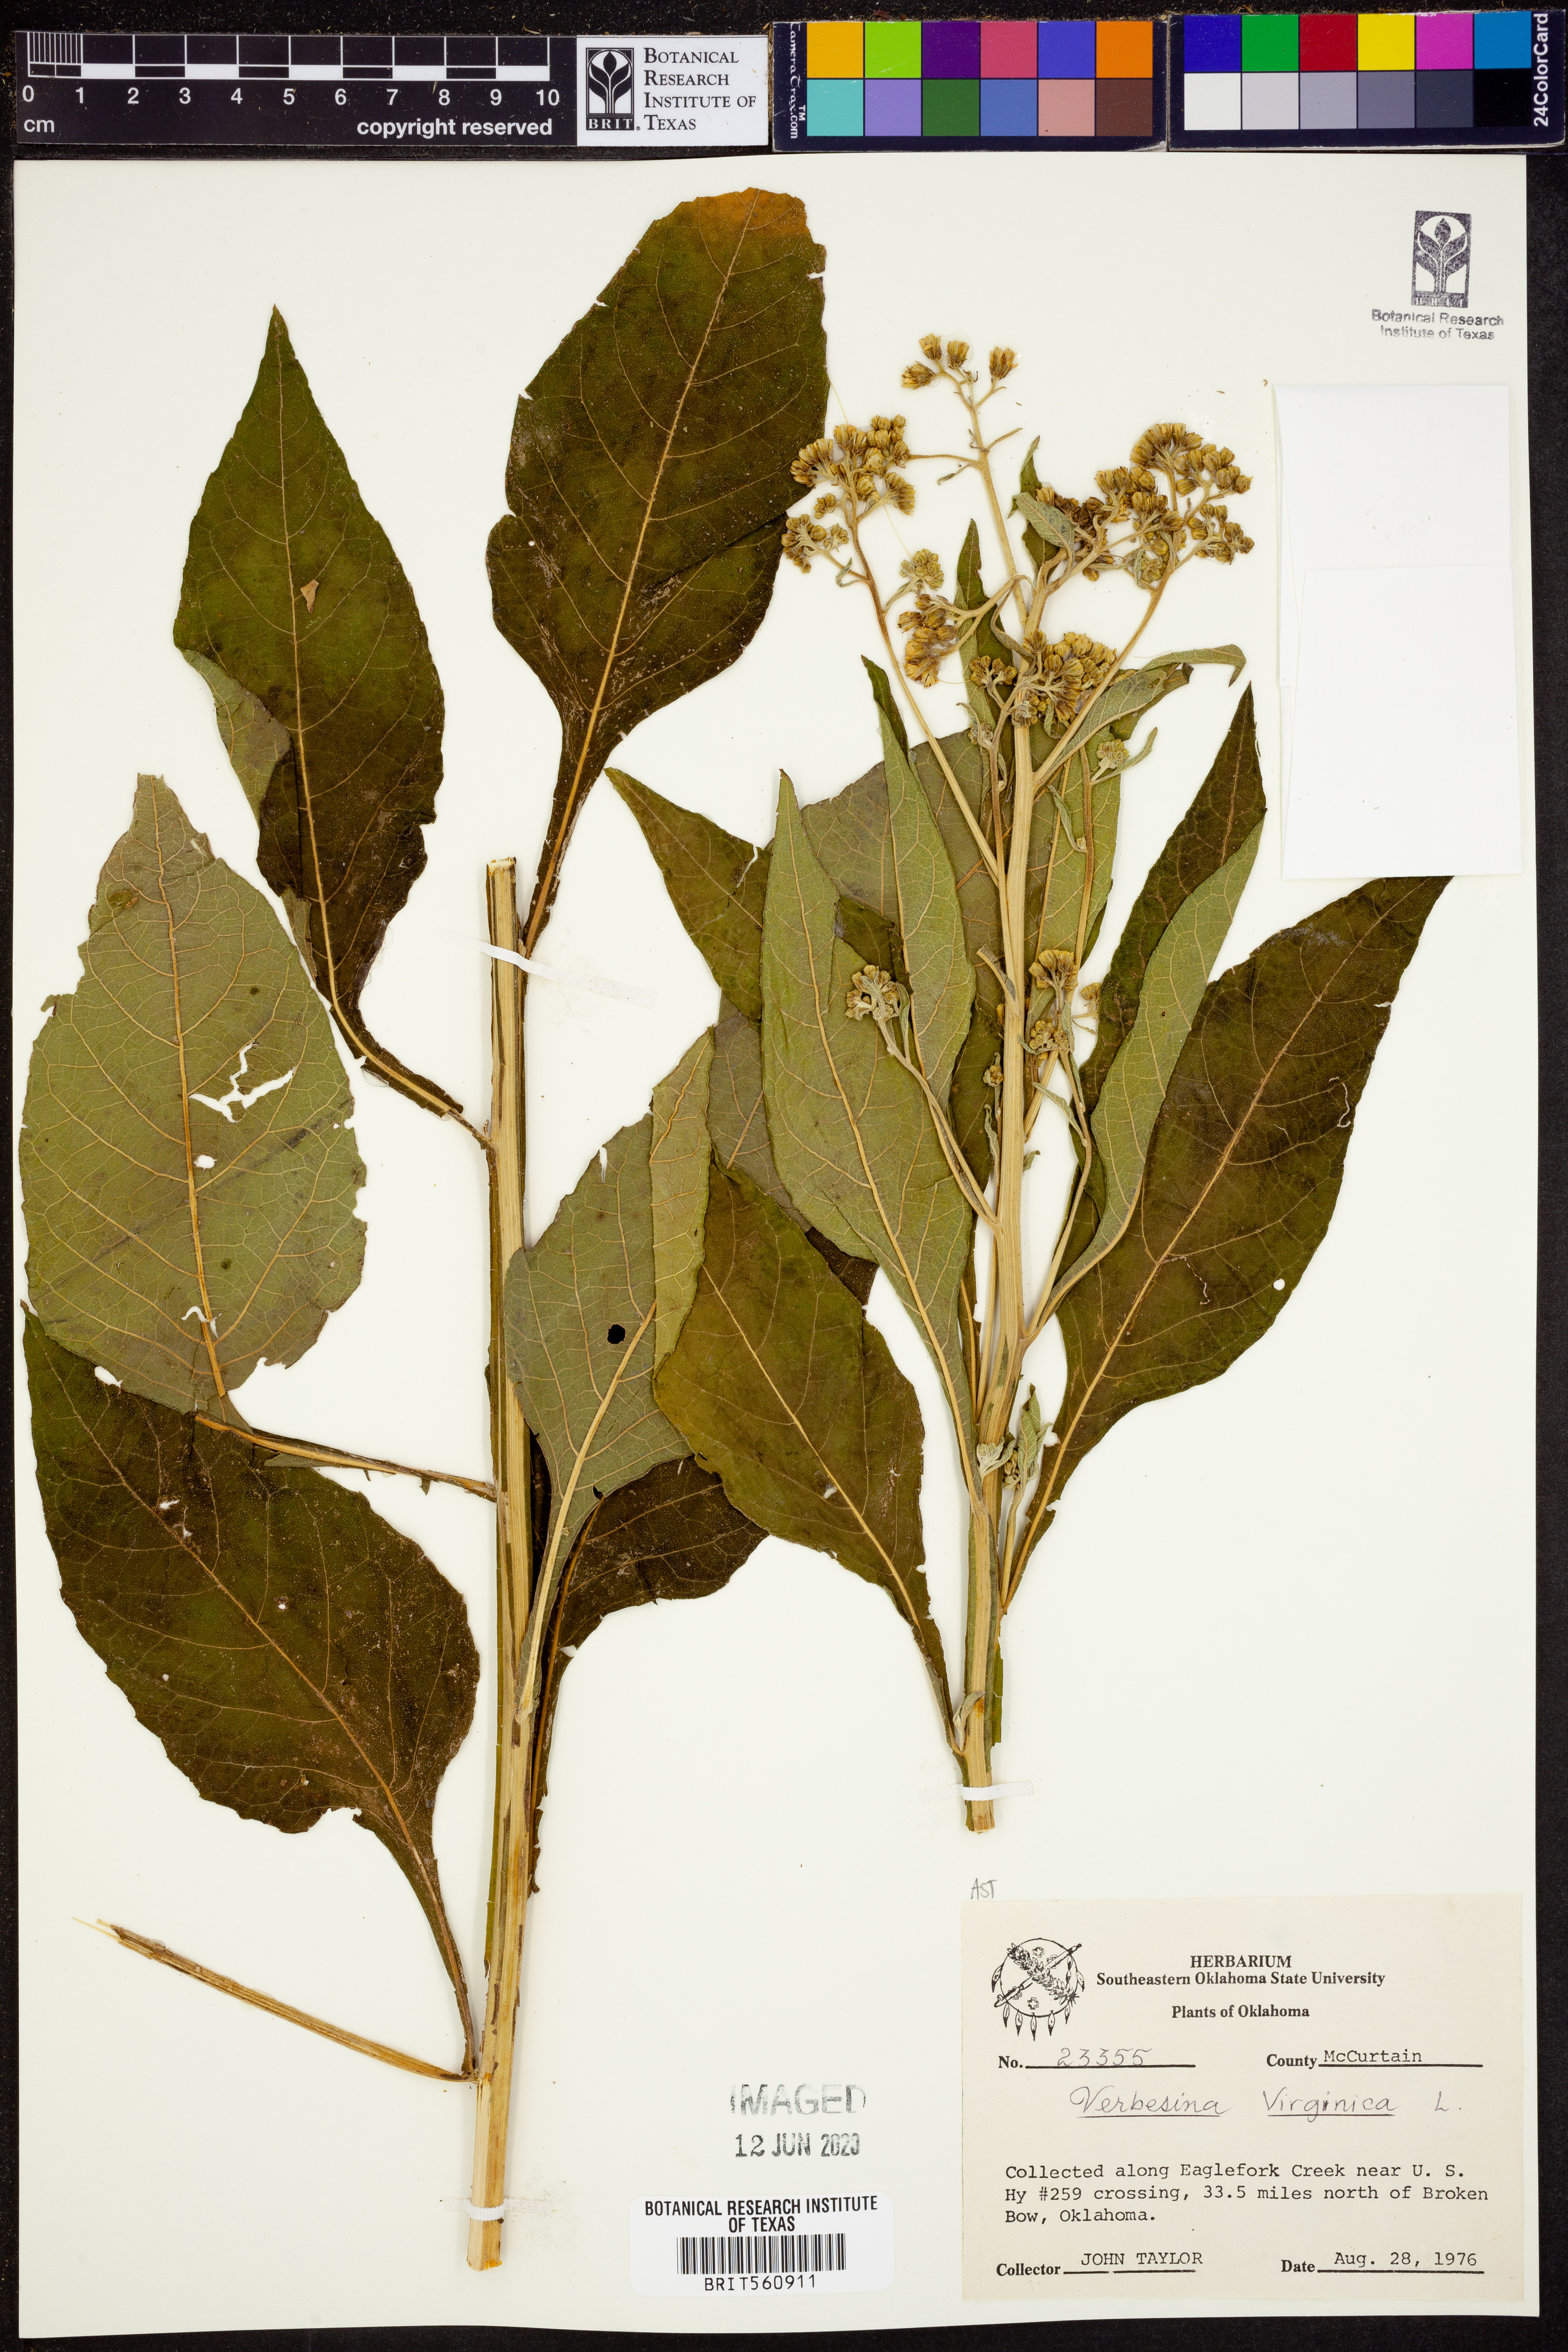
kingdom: Plantae
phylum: Tracheophyta
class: Magnoliopsida
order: Asterales
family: Asteraceae
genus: Verbesina
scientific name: Verbesina virgata
